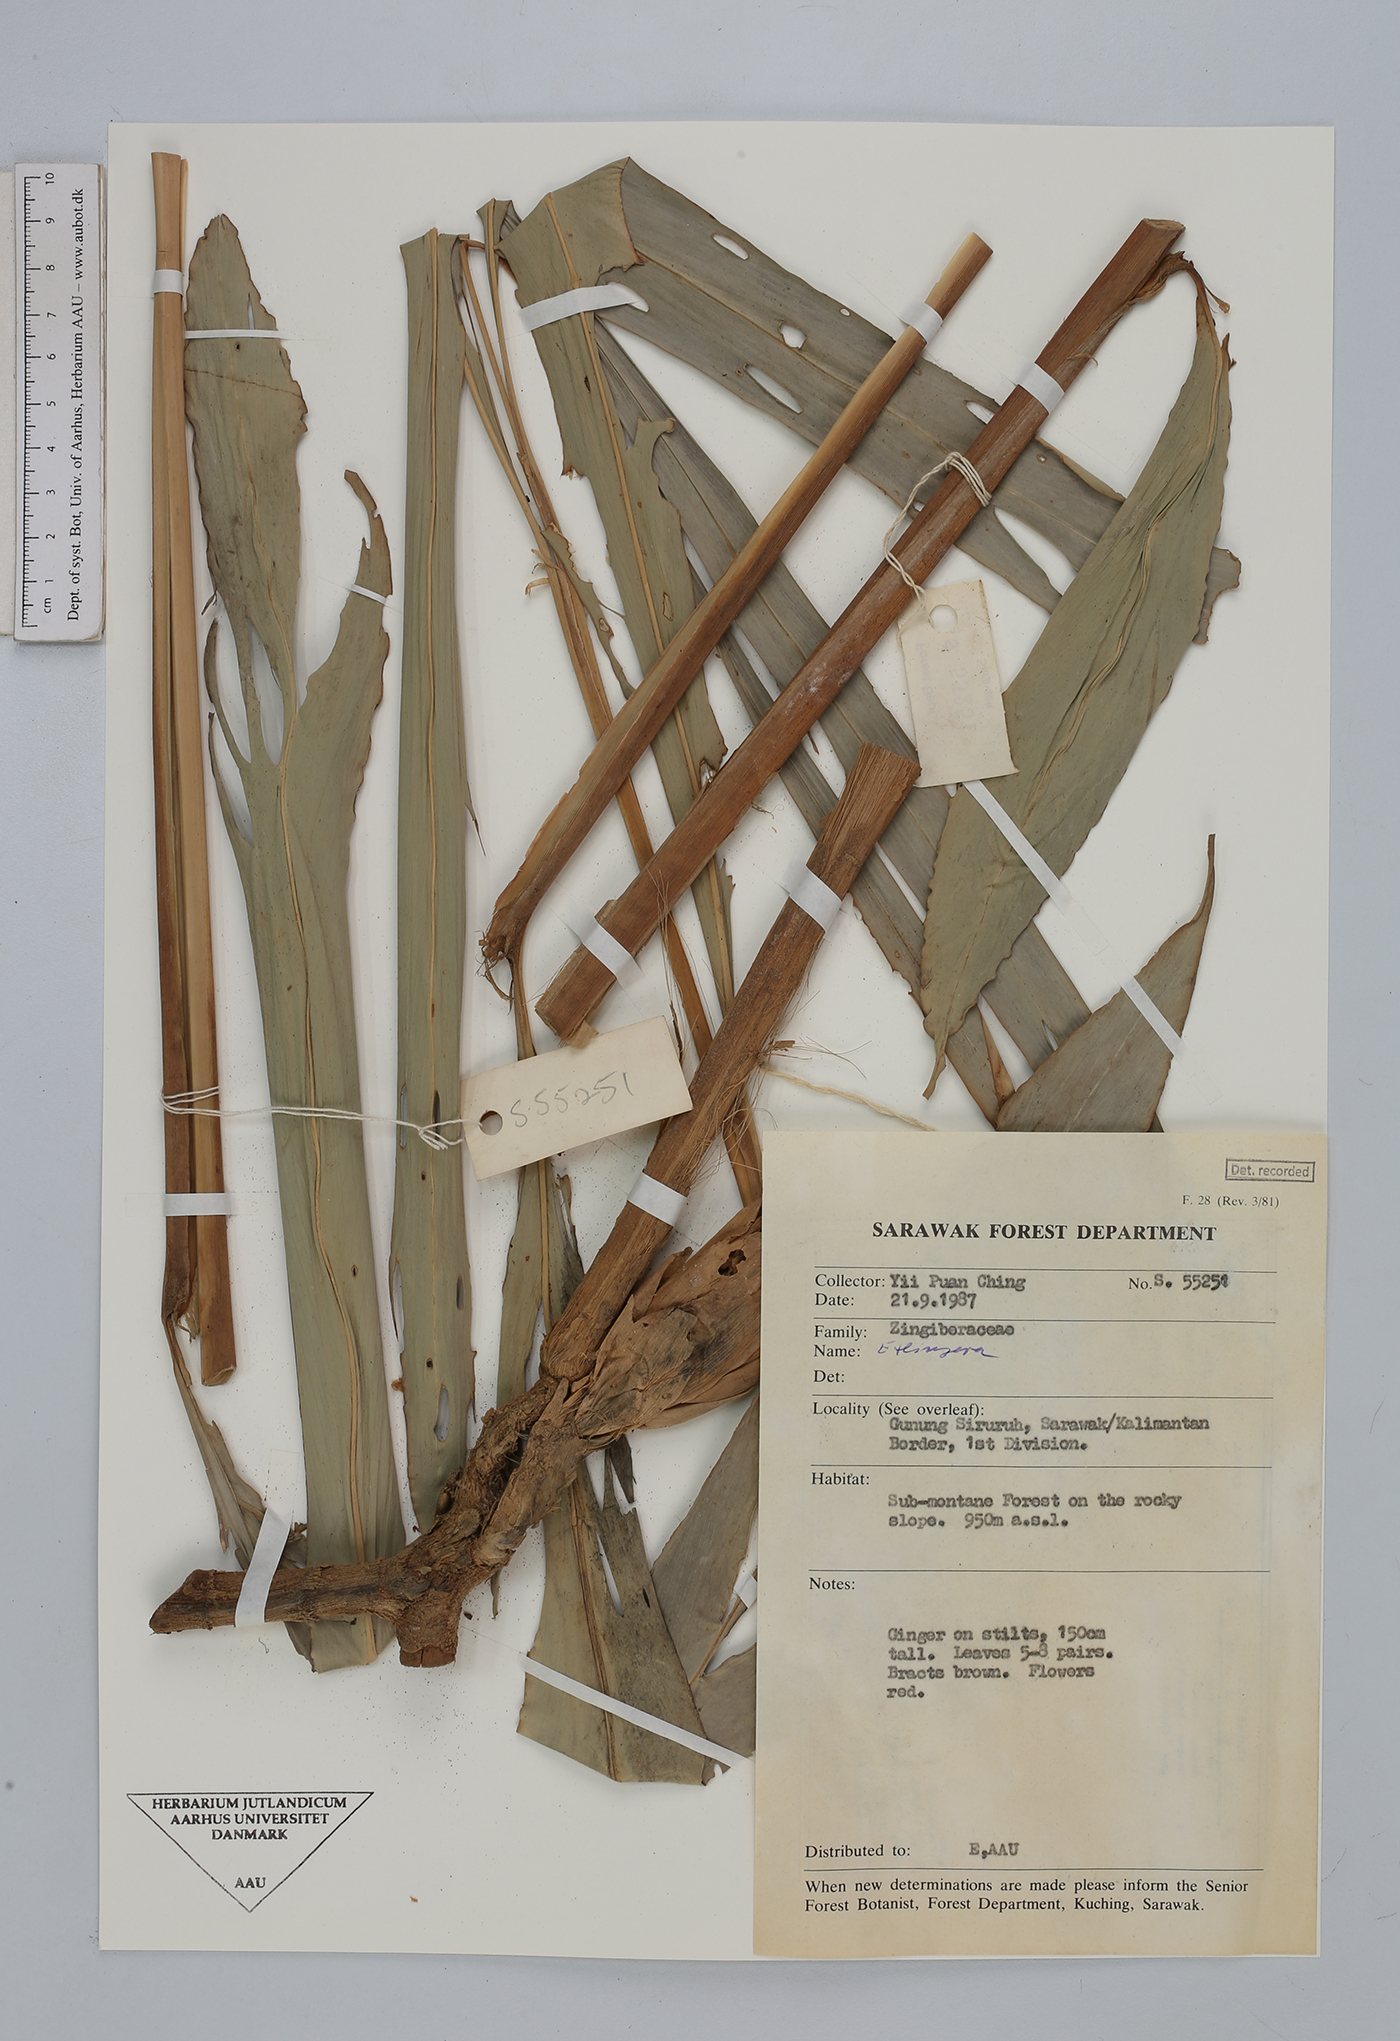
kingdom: Plantae
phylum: Tracheophyta
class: Liliopsida
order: Zingiberales
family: Zingiberaceae
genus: Etlingera
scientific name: Etlingera
